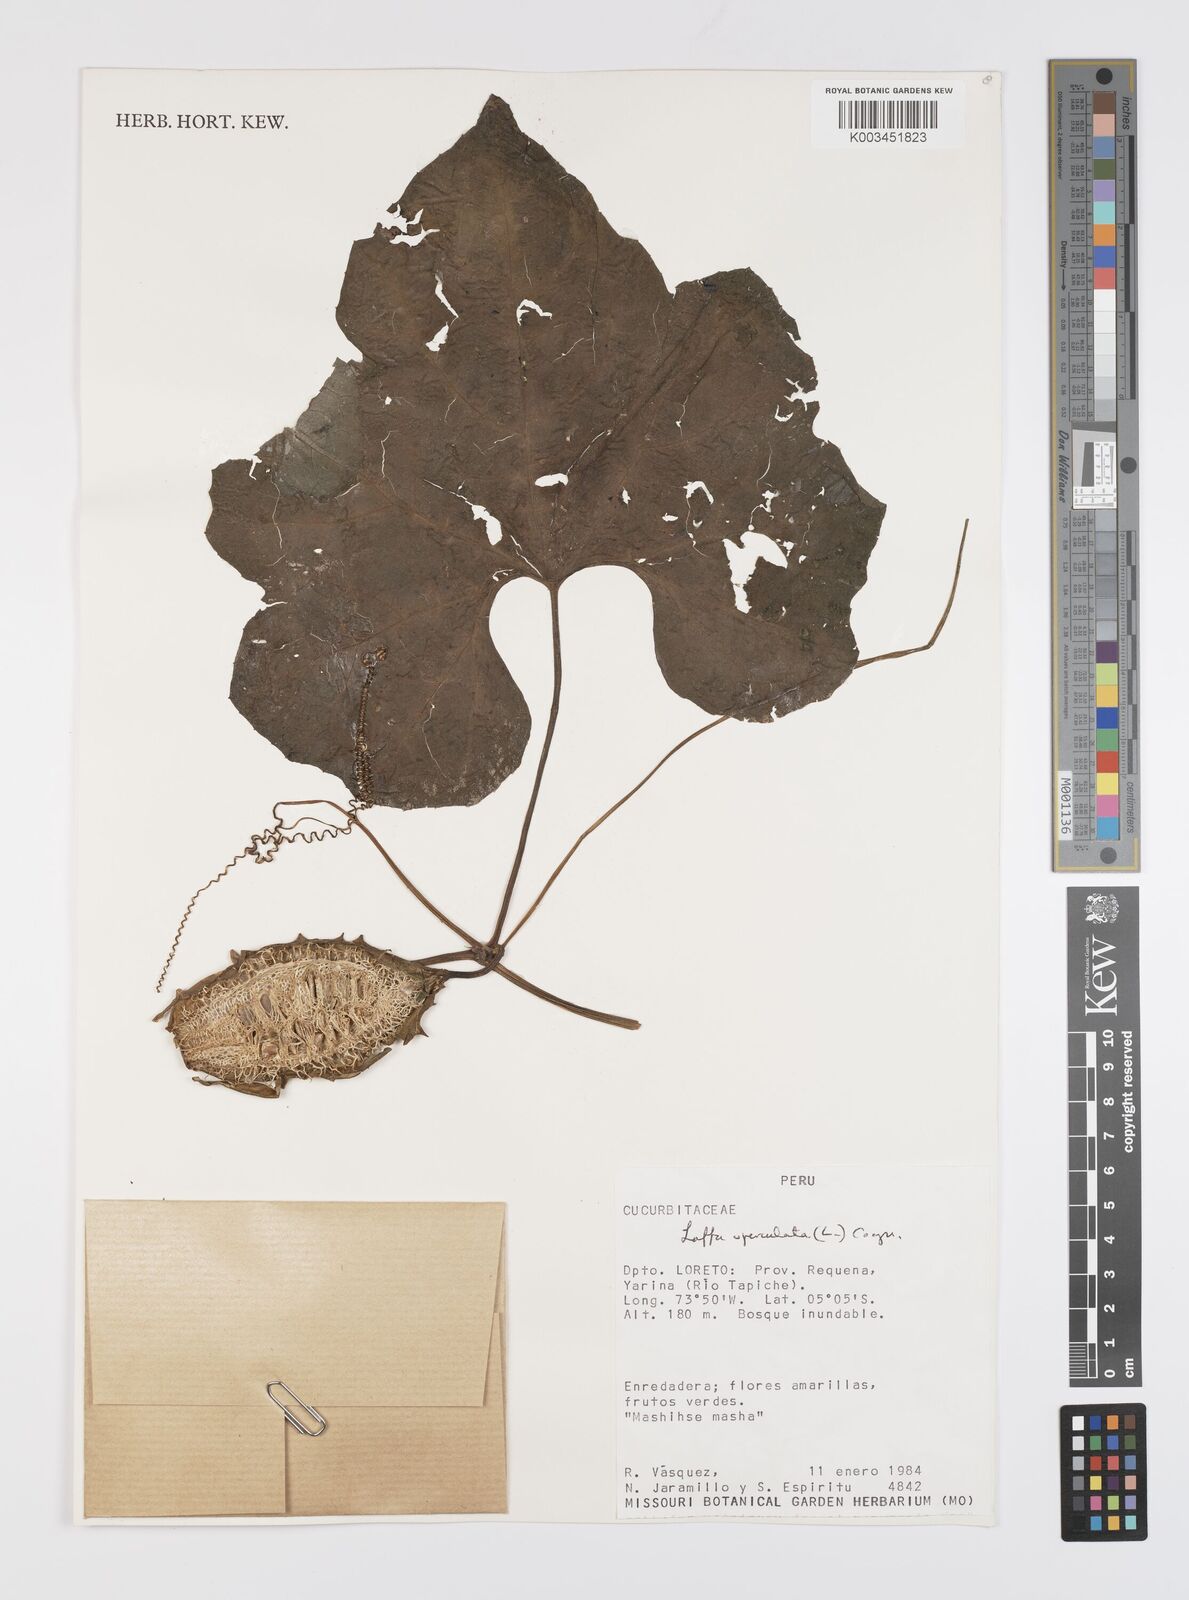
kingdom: Plantae
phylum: Tracheophyta
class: Magnoliopsida
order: Cucurbitales
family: Cucurbitaceae
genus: Luffa
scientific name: Luffa operculata
